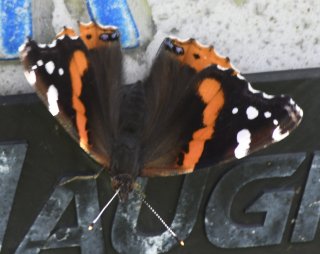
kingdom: Animalia
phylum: Arthropoda
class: Insecta
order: Lepidoptera
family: Nymphalidae
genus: Vanessa
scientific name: Vanessa atalanta
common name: Red Admiral
